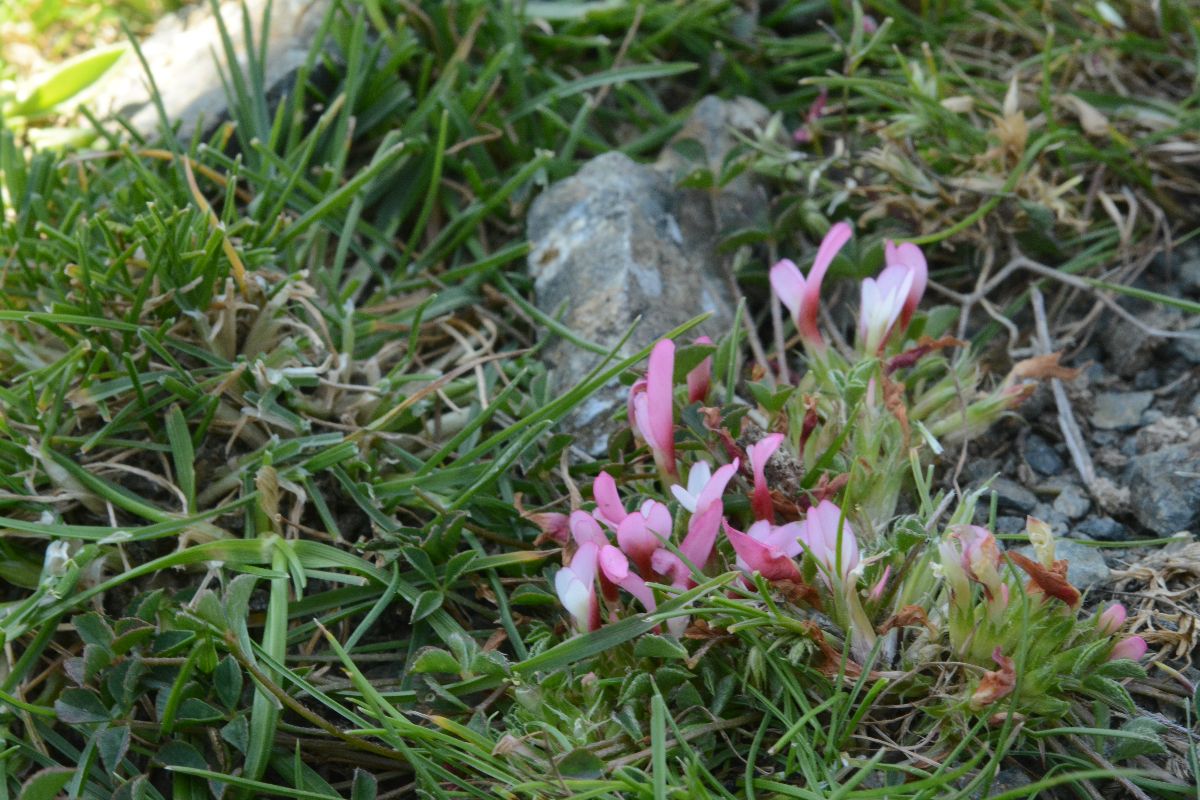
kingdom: Plantae
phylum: Tracheophyta
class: Magnoliopsida
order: Fabales
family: Fabaceae
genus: Trifolium
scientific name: Trifolium uniflorum
